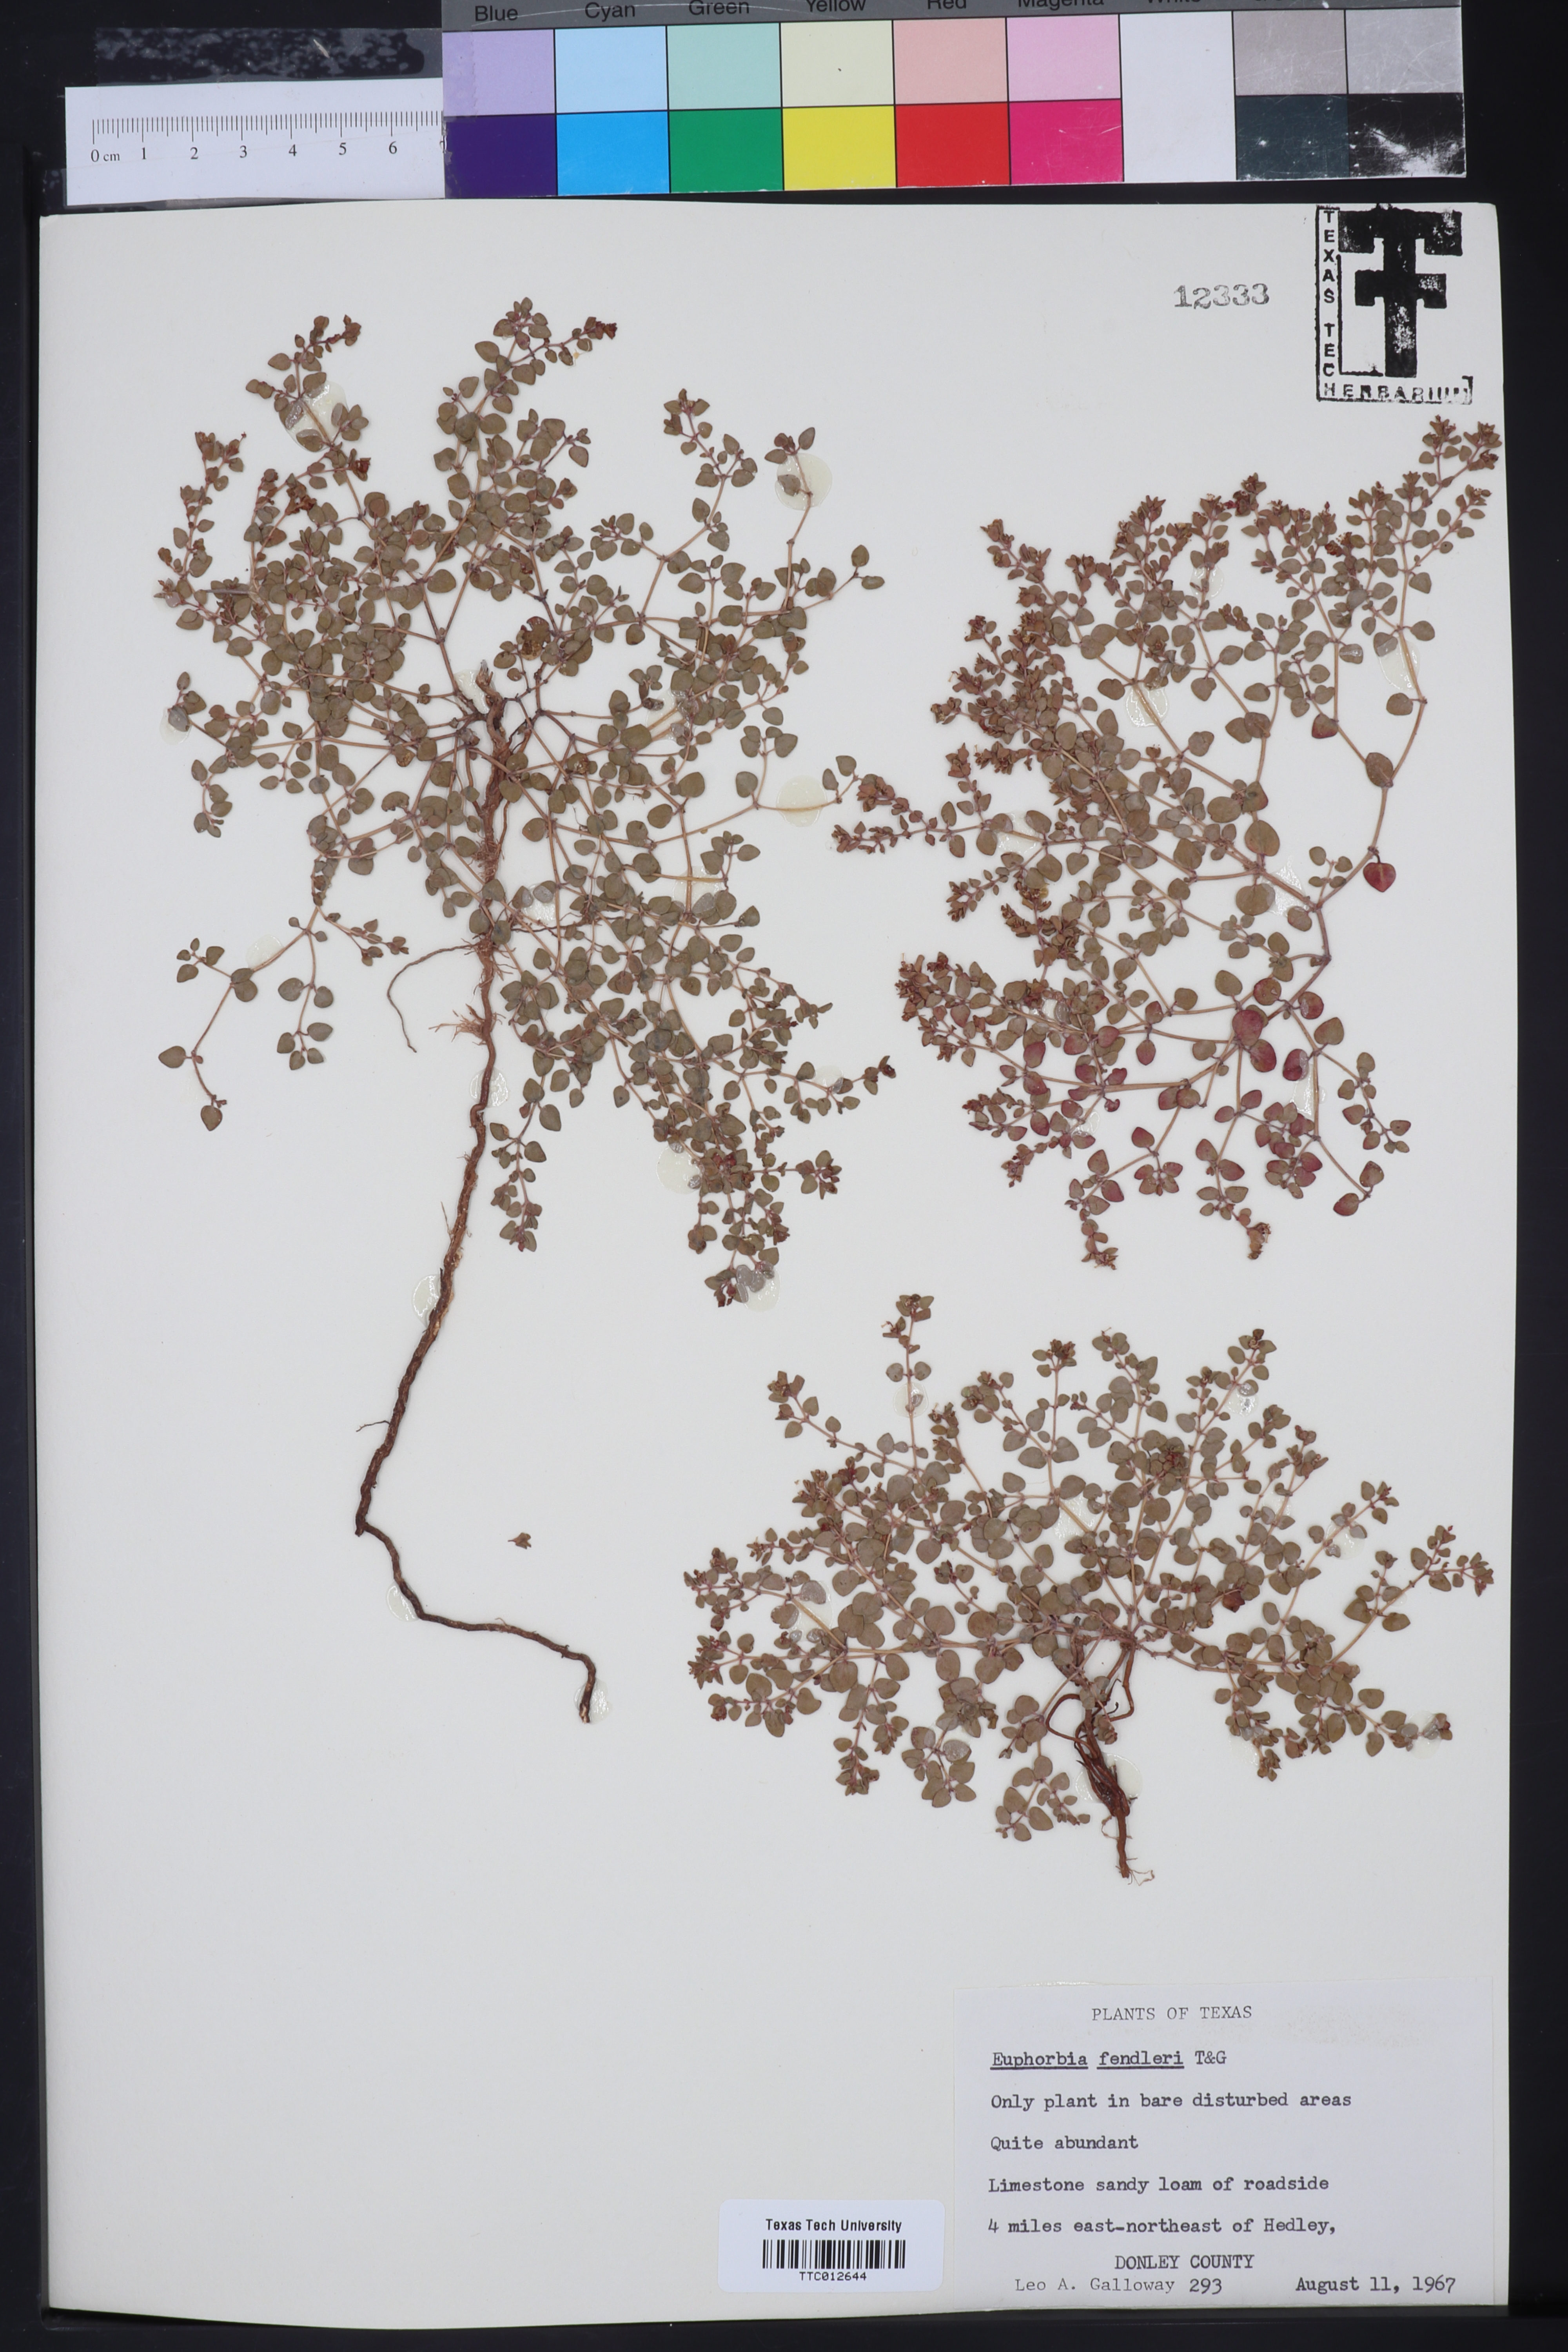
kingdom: Plantae
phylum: Tracheophyta
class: Magnoliopsida
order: Malpighiales
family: Euphorbiaceae
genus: Euphorbia
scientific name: Euphorbia fendleri
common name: Fendler's euphorbia
